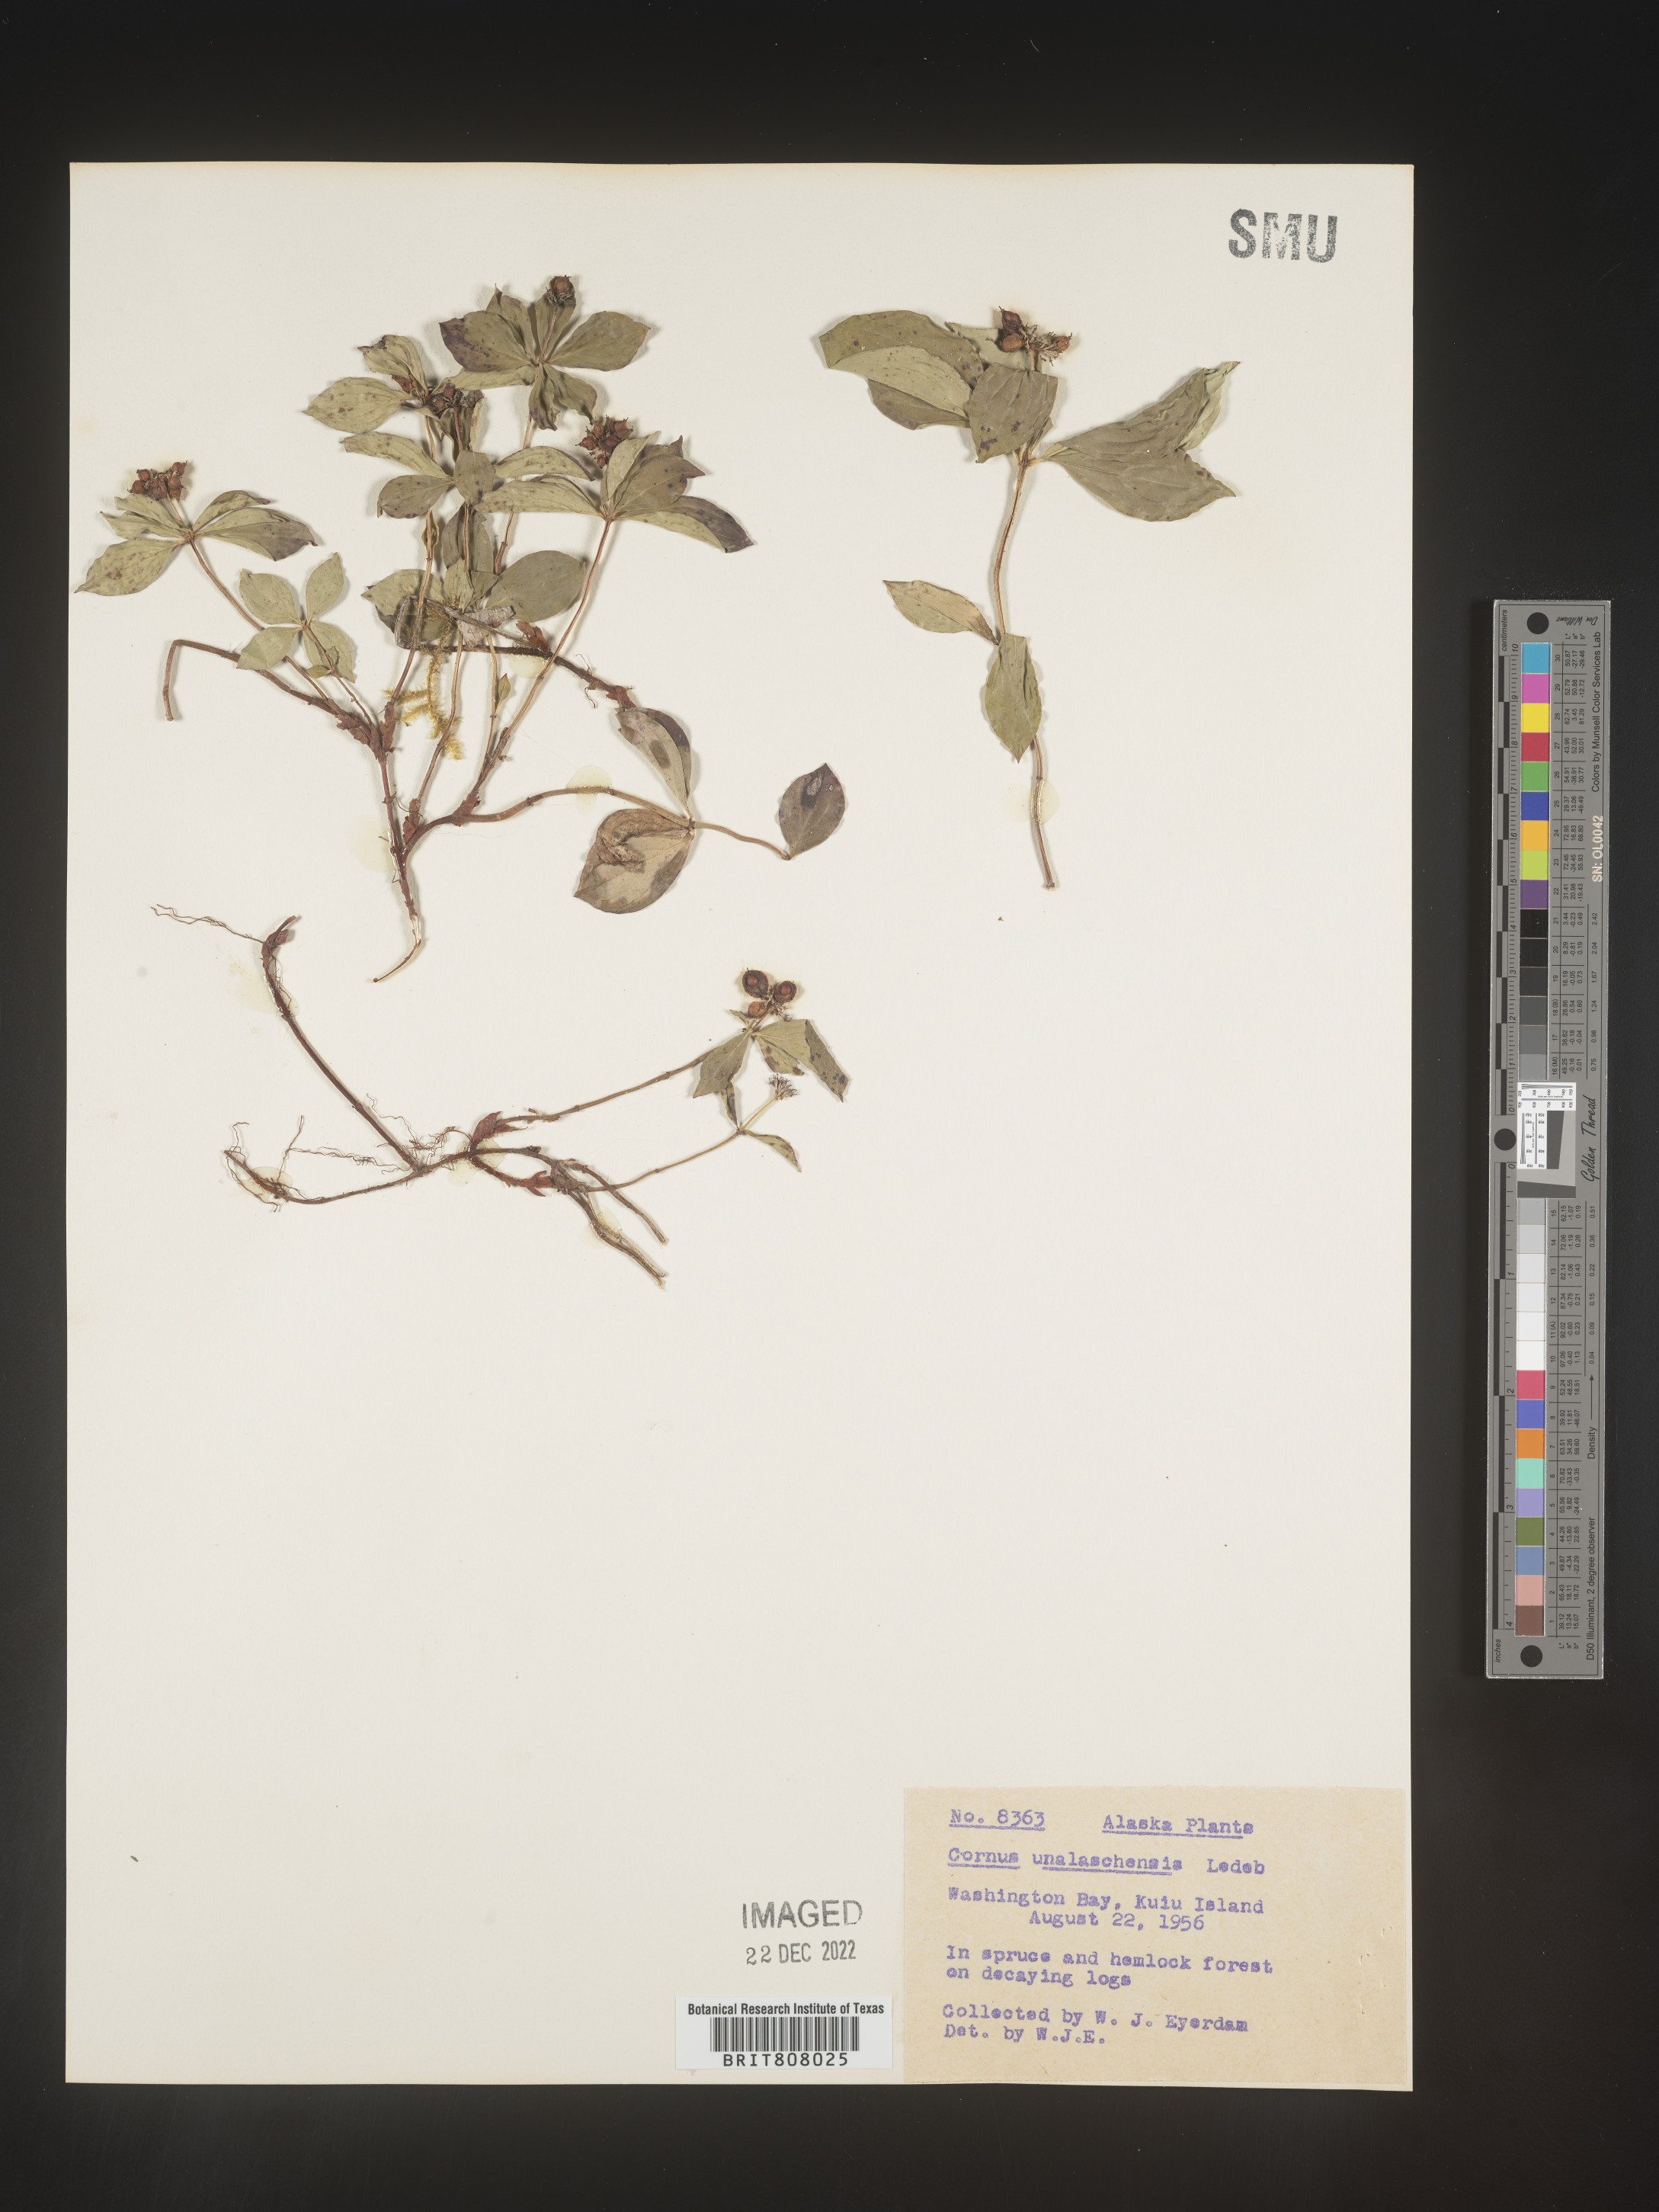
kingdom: Plantae
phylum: Tracheophyta
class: Magnoliopsida
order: Cornales
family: Cornaceae
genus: Cornus
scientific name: Cornus
